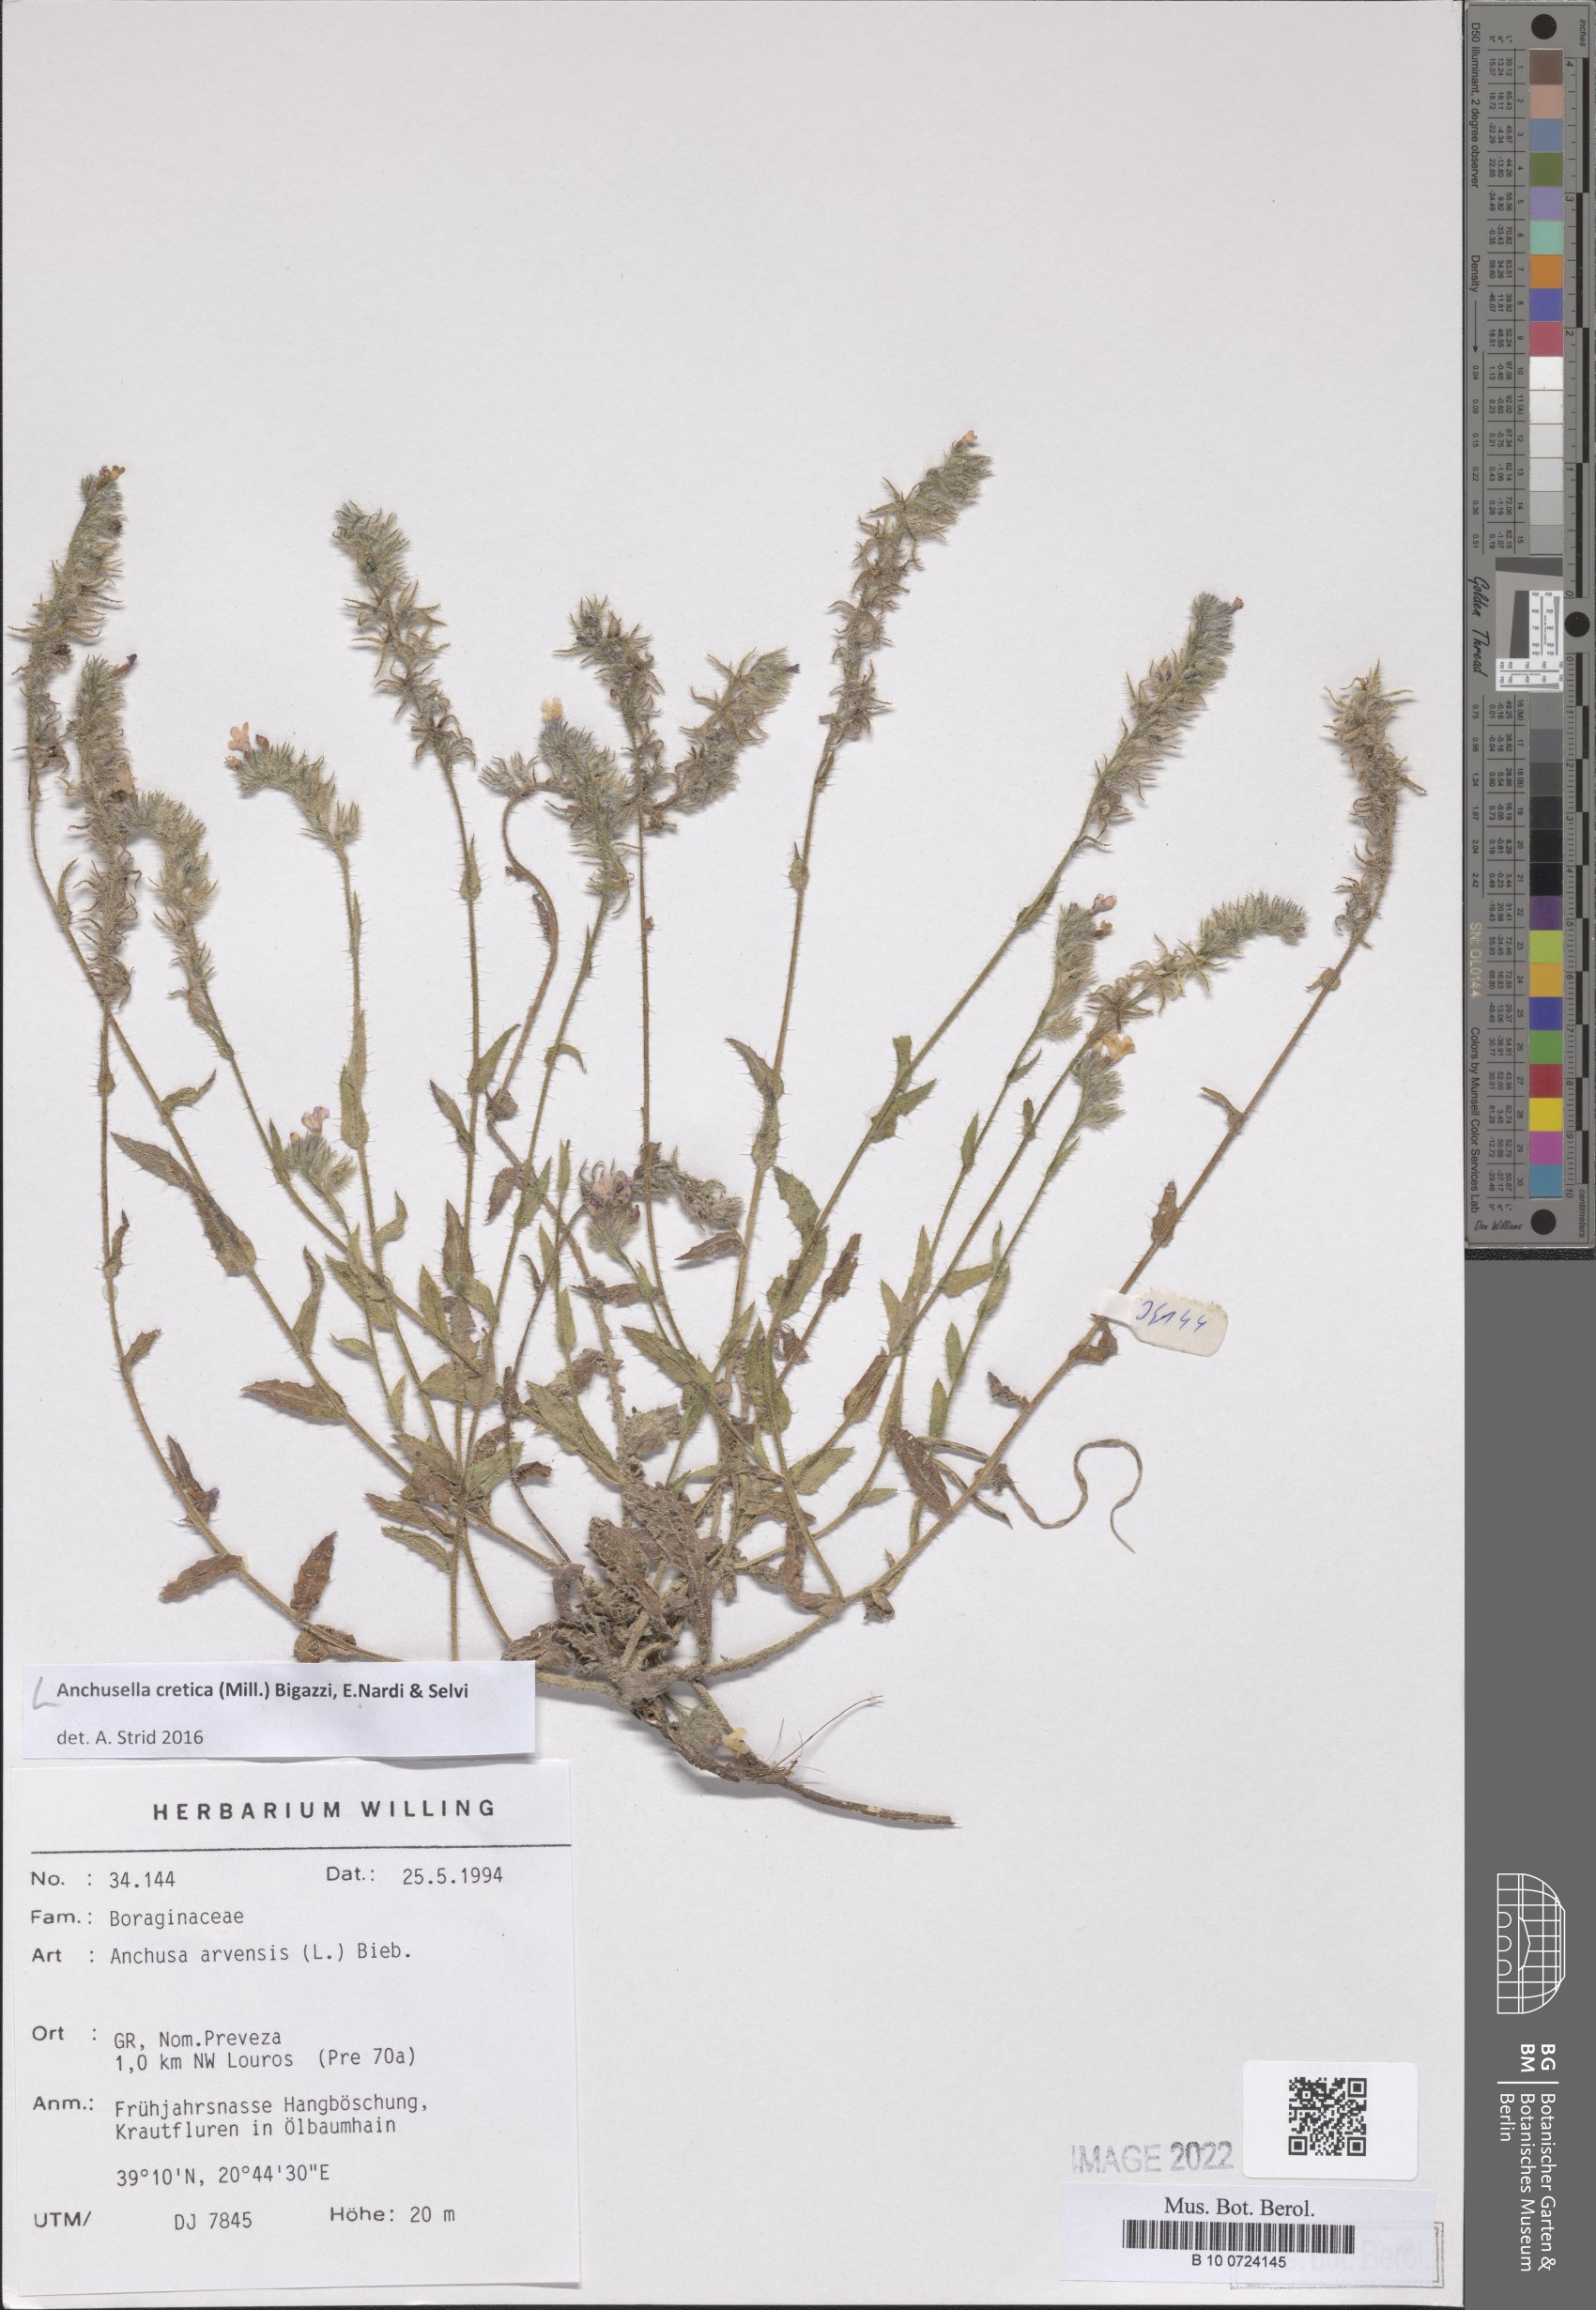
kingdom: Plantae
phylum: Tracheophyta
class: Magnoliopsida
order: Boraginales
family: Boraginaceae
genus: Anchusella
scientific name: Anchusella cretica
